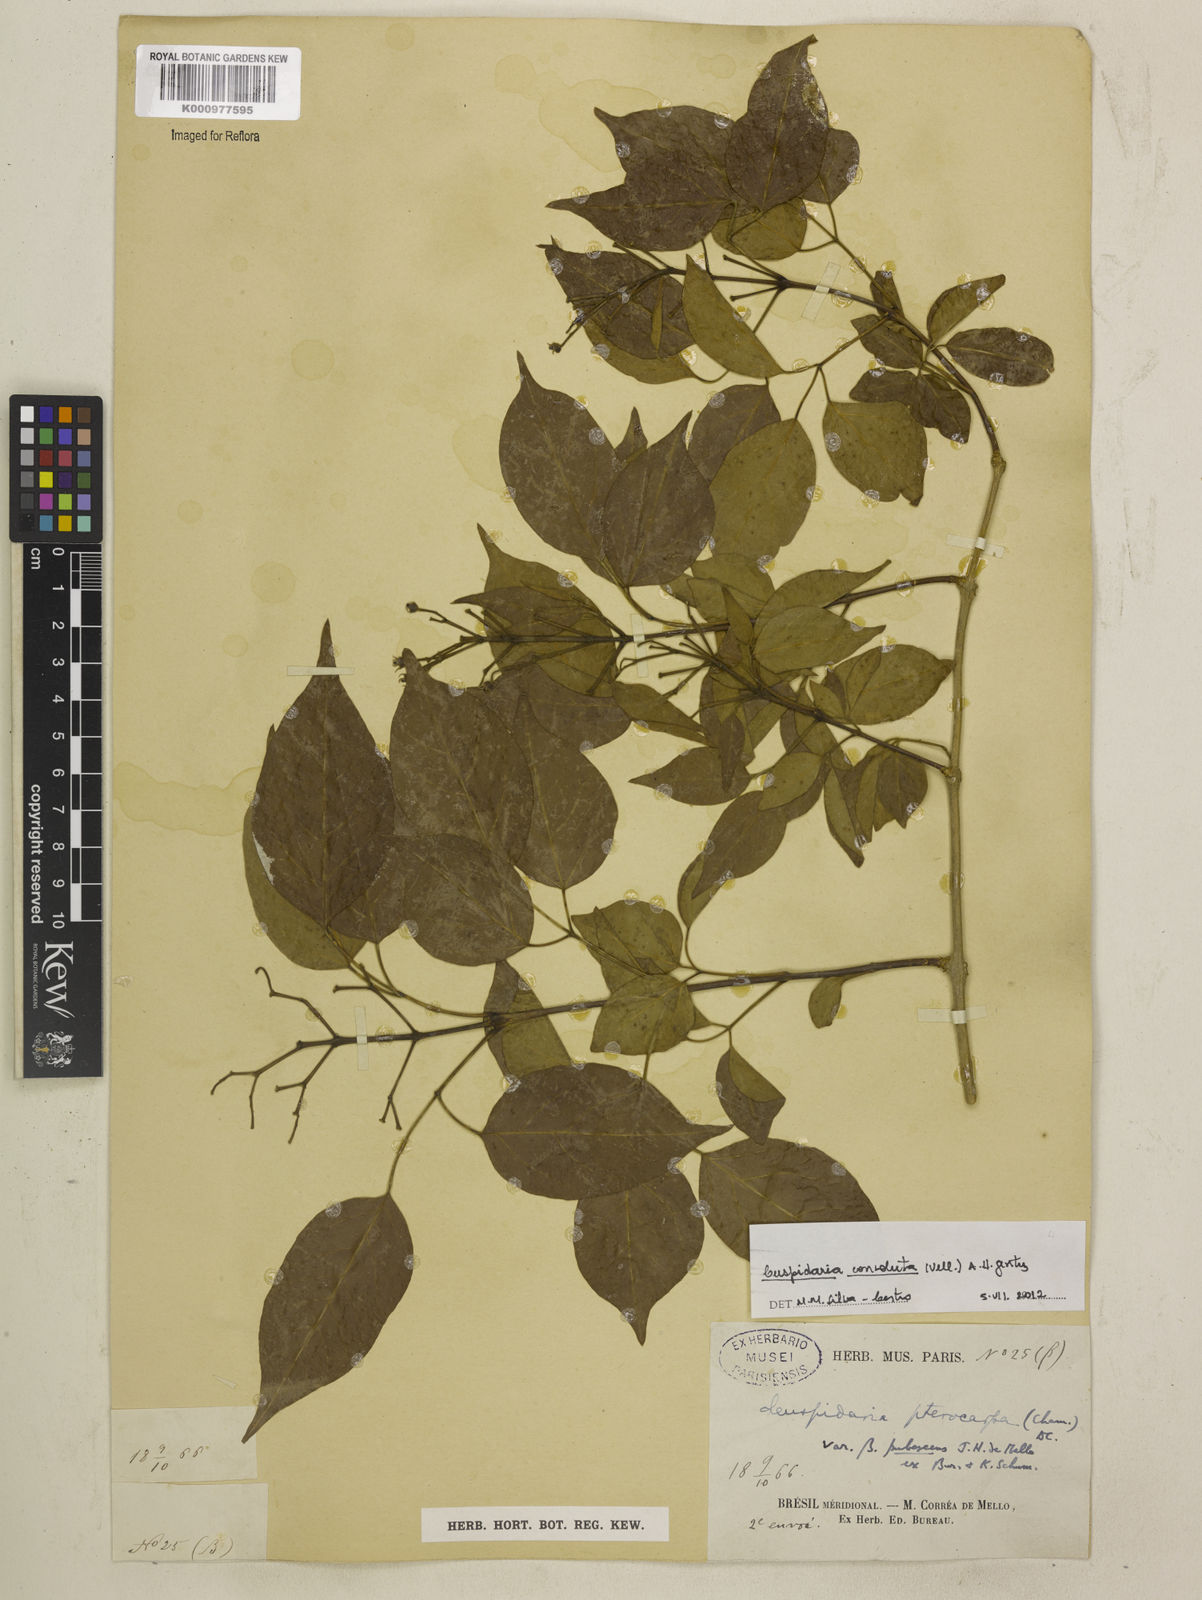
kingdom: Plantae
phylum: Tracheophyta
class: Magnoliopsida
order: Lamiales
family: Bignoniaceae
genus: Cuspidaria
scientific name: Cuspidaria convoluta
